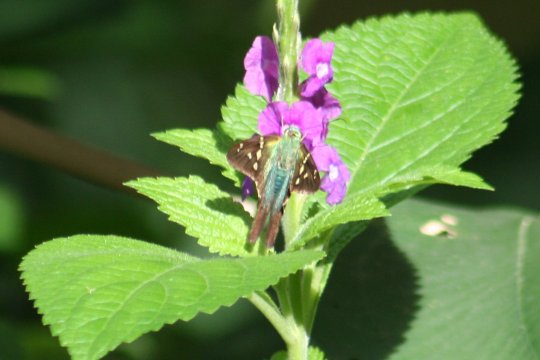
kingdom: Animalia
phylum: Arthropoda
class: Insecta
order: Lepidoptera
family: Hesperiidae
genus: Urbanus
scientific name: Urbanus viterboana
